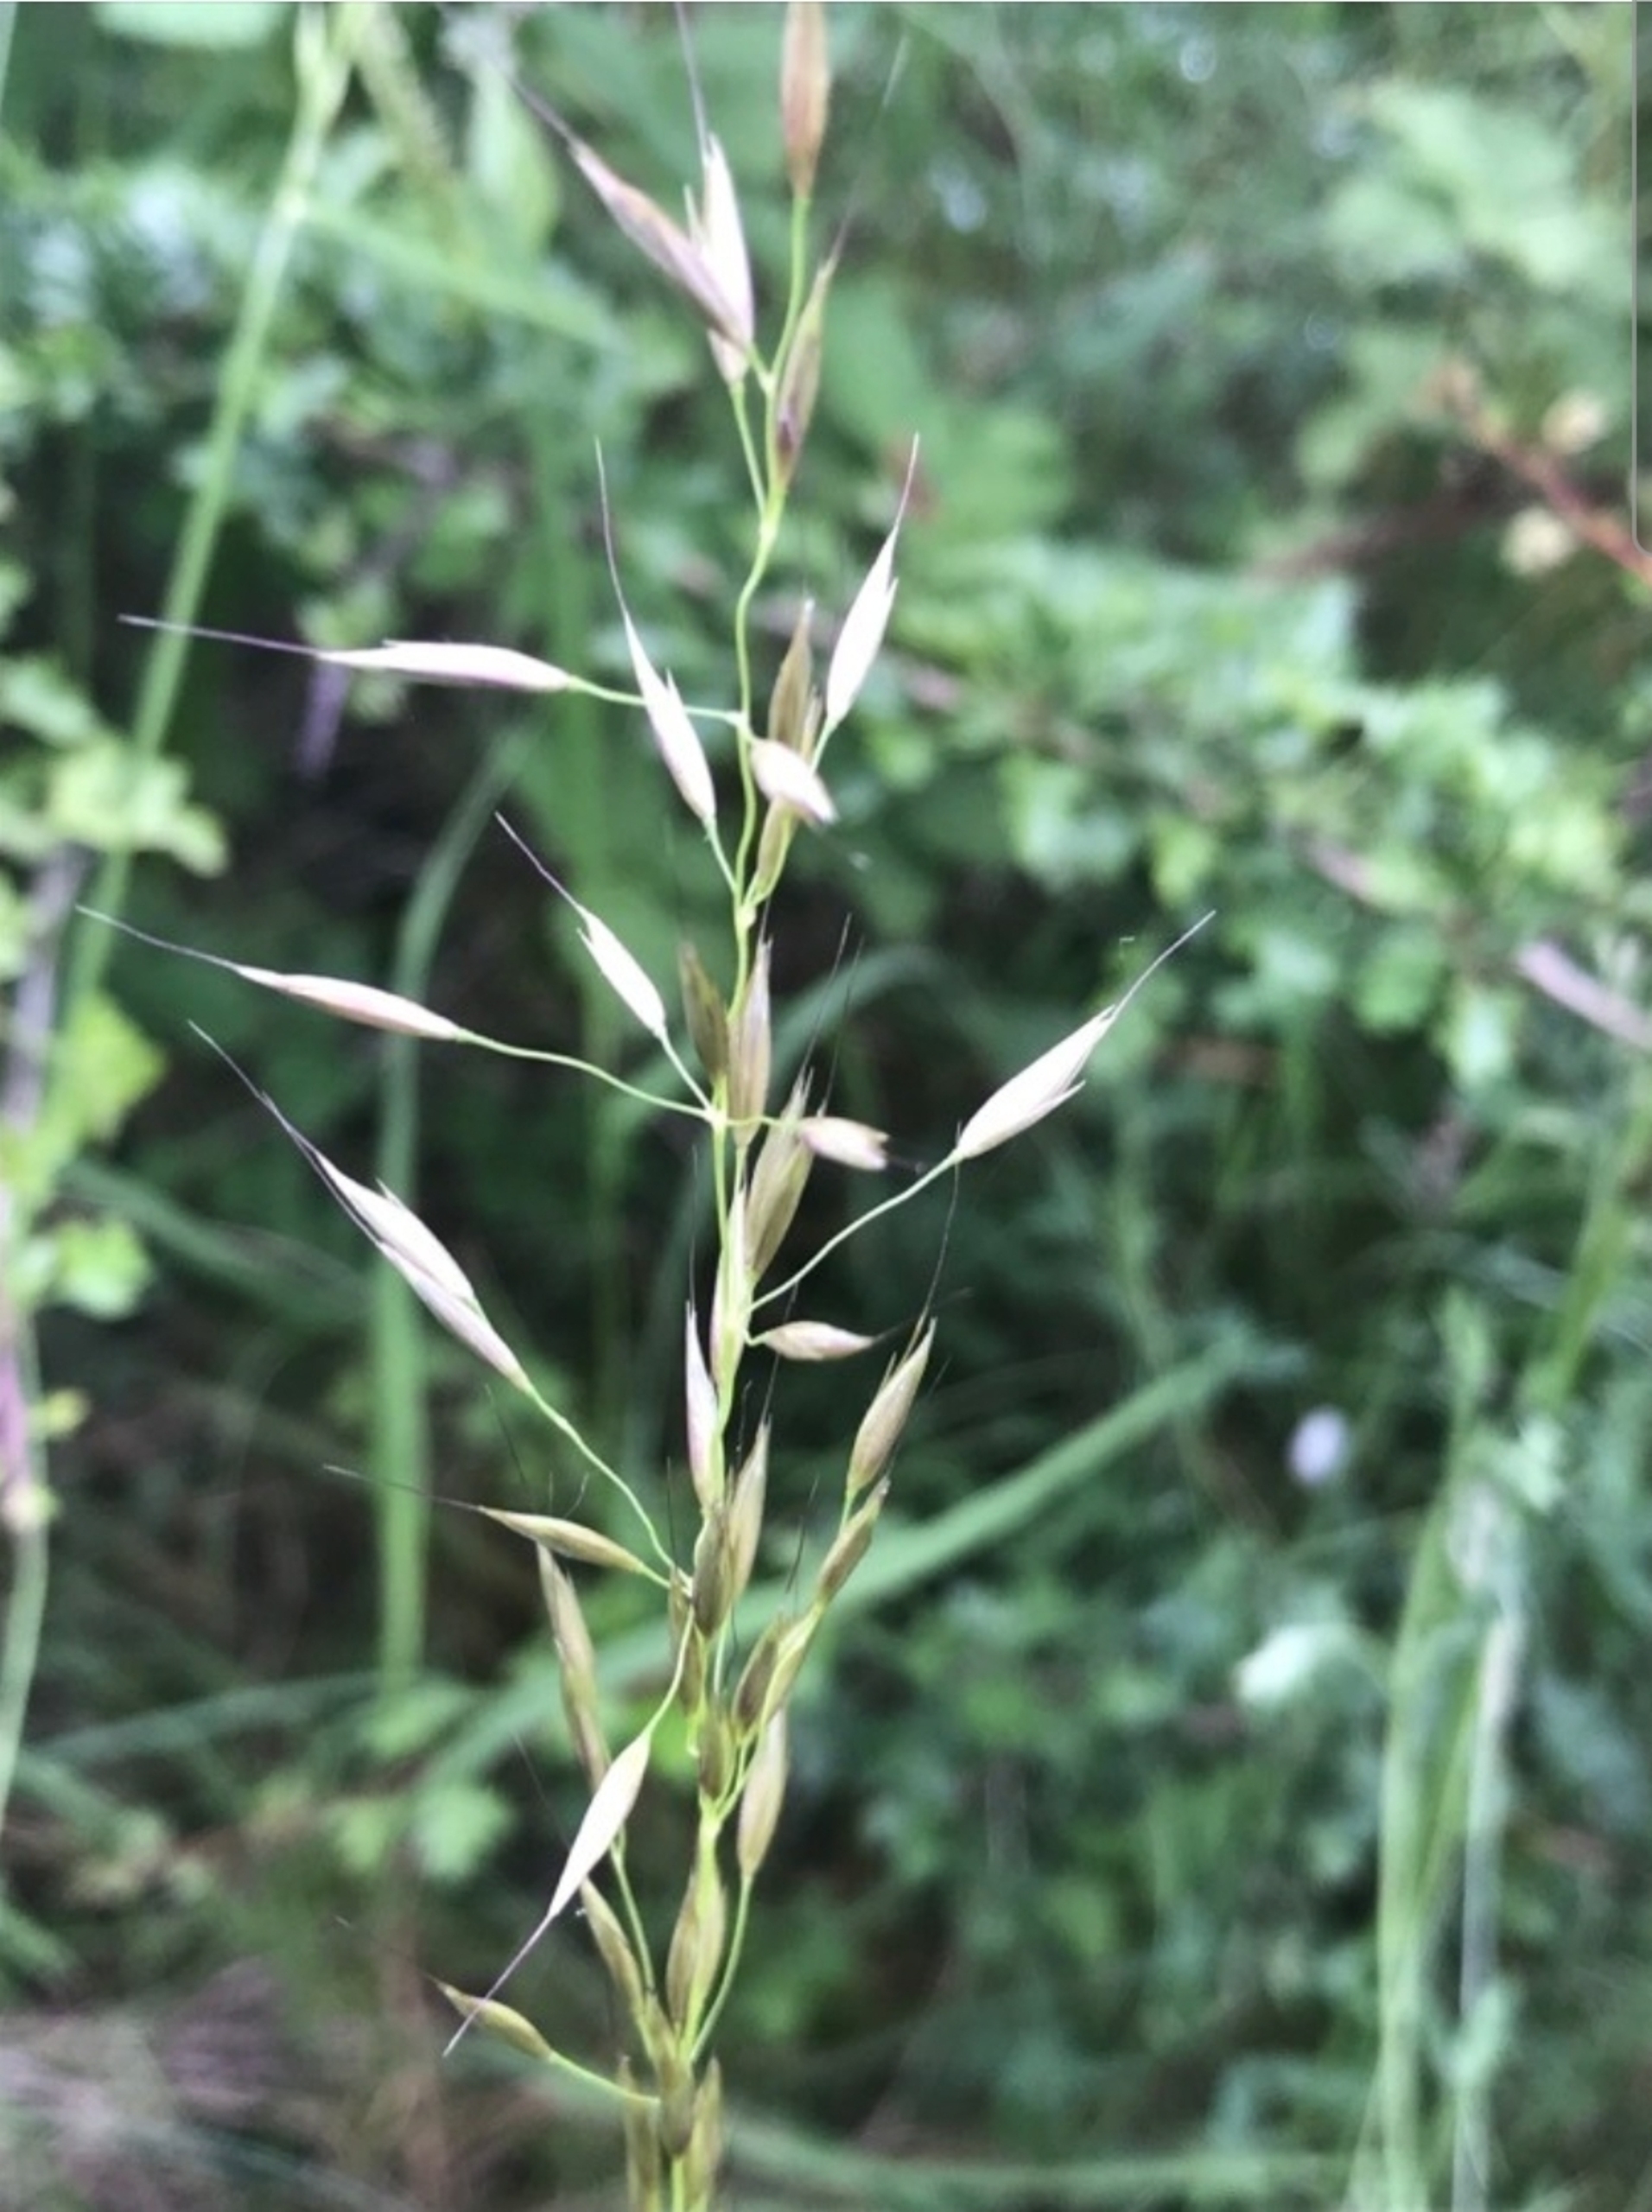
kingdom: Plantae
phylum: Tracheophyta
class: Liliopsida
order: Poales
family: Poaceae
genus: Arrhenatherum
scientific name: Arrhenatherum elatius
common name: Draphavre
